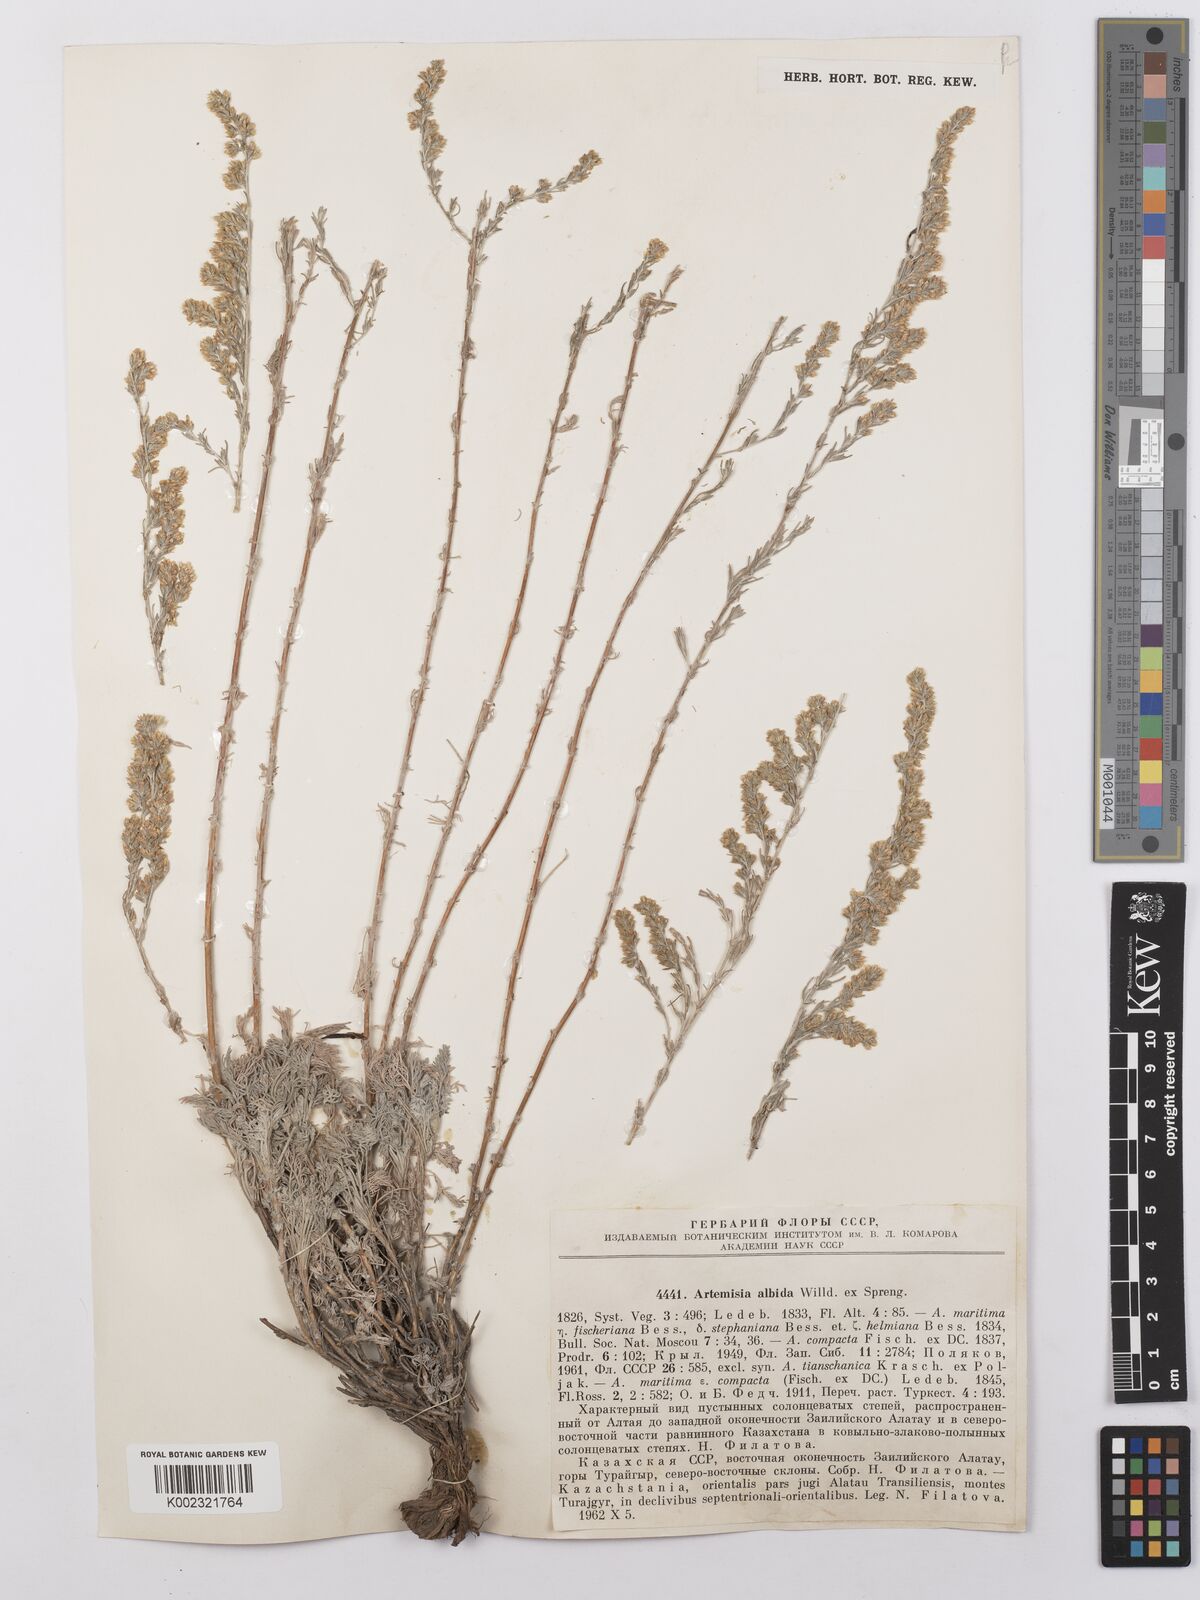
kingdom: Plantae
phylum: Tracheophyta
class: Magnoliopsida
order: Asterales
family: Asteraceae
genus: Artemisia
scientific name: Artemisia schrenkiana
